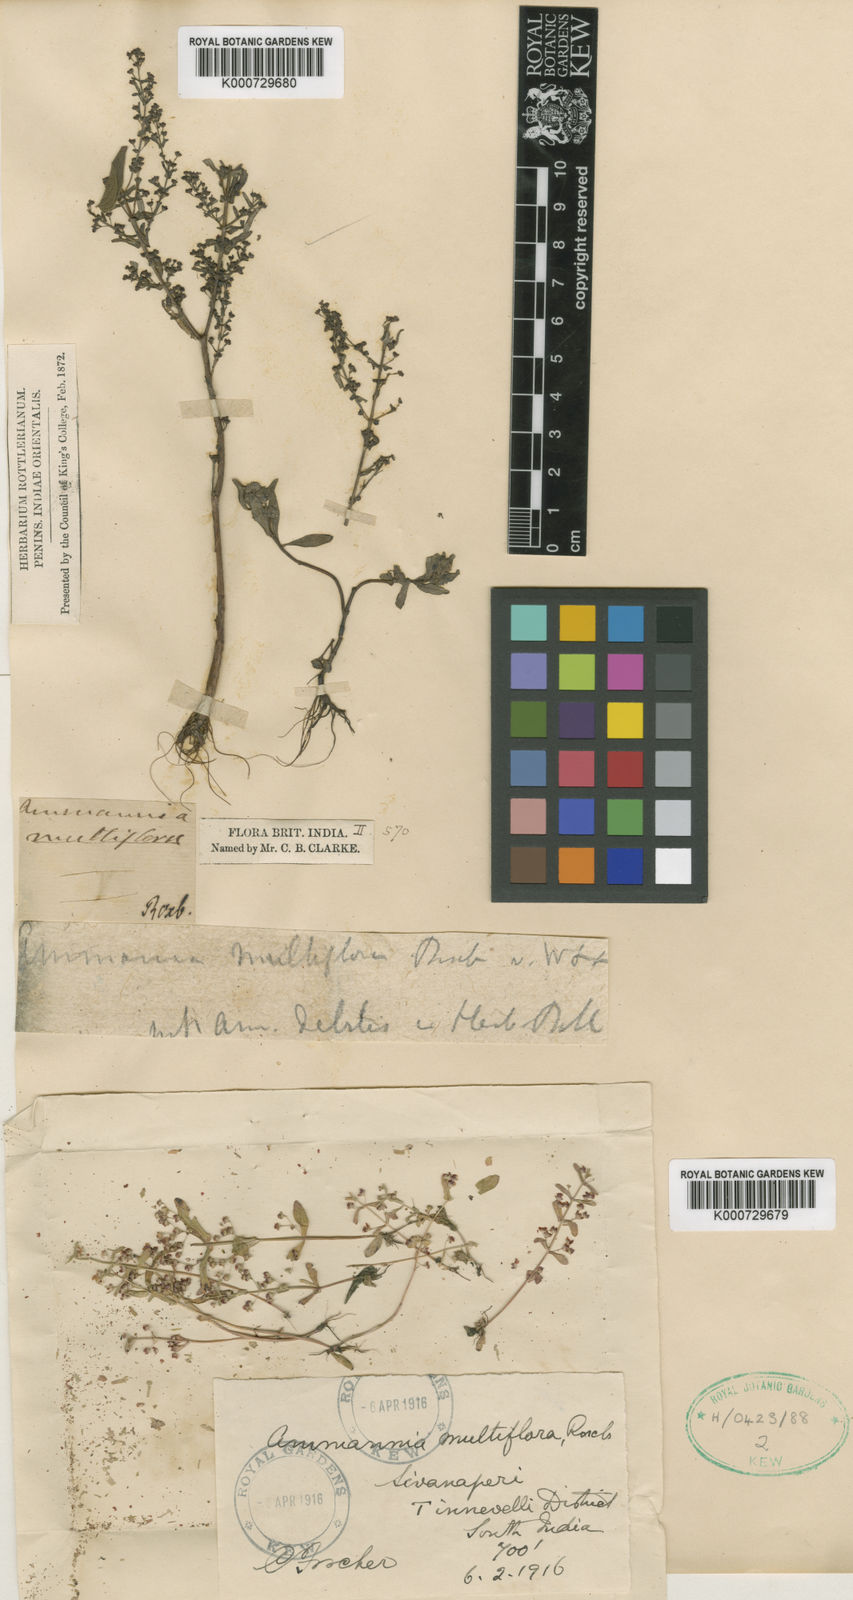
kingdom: Plantae
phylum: Tracheophyta
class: Magnoliopsida
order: Myrtales
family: Lythraceae
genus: Ammannia
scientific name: Ammannia auriculata
